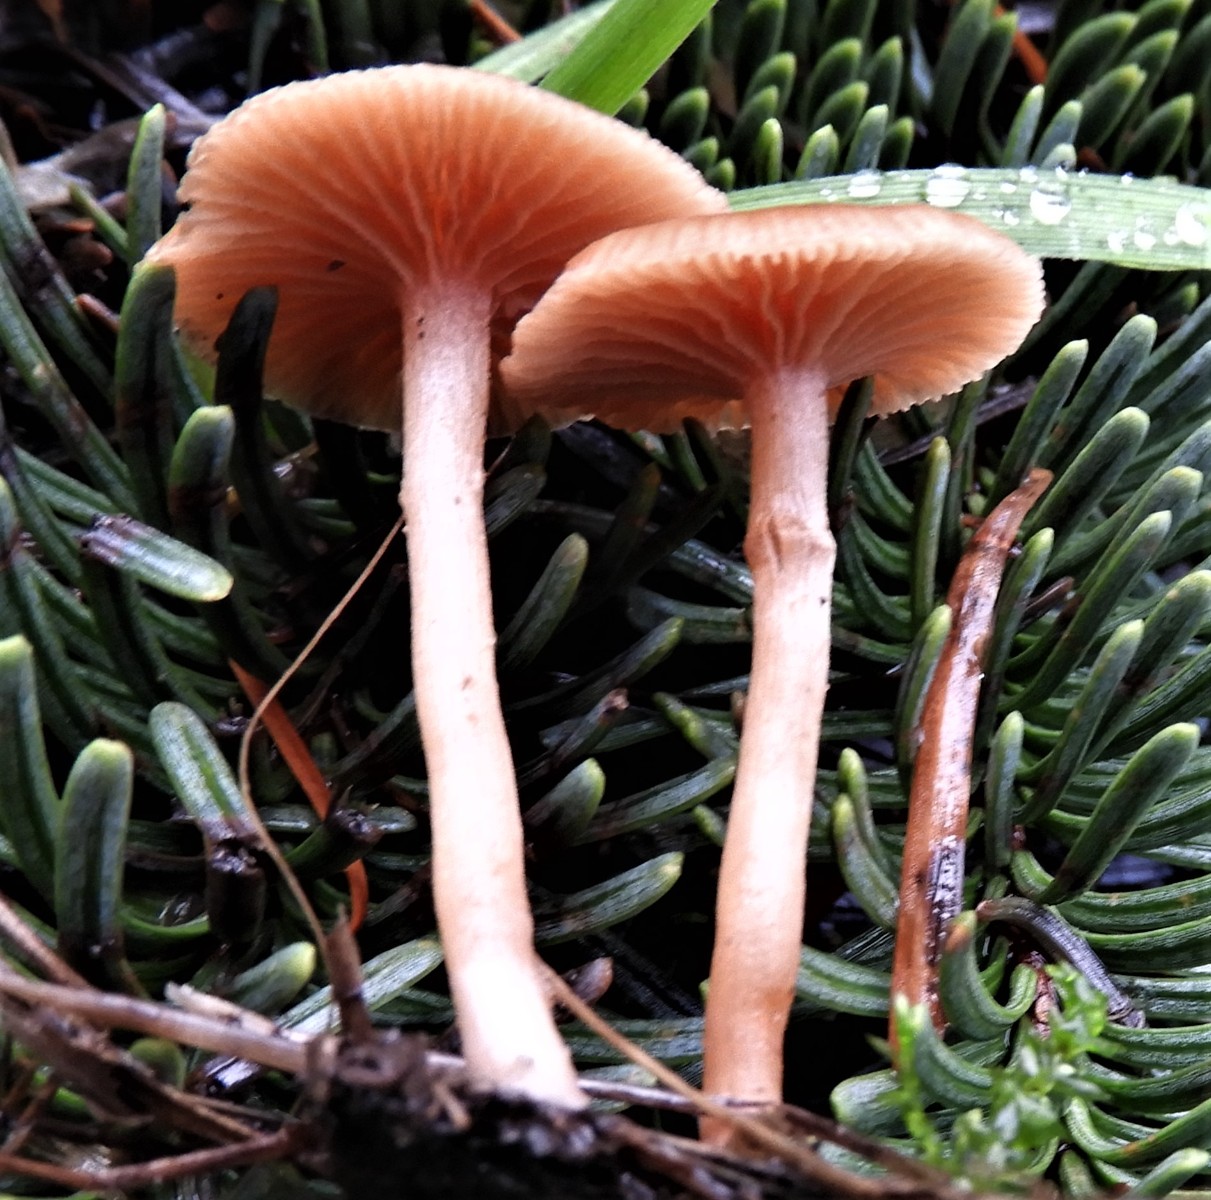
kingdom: Fungi
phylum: Basidiomycota
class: Agaricomycetes
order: Agaricales
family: Tubariaceae
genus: Tubaria
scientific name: Tubaria furfuracea
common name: kliddet fnughat
